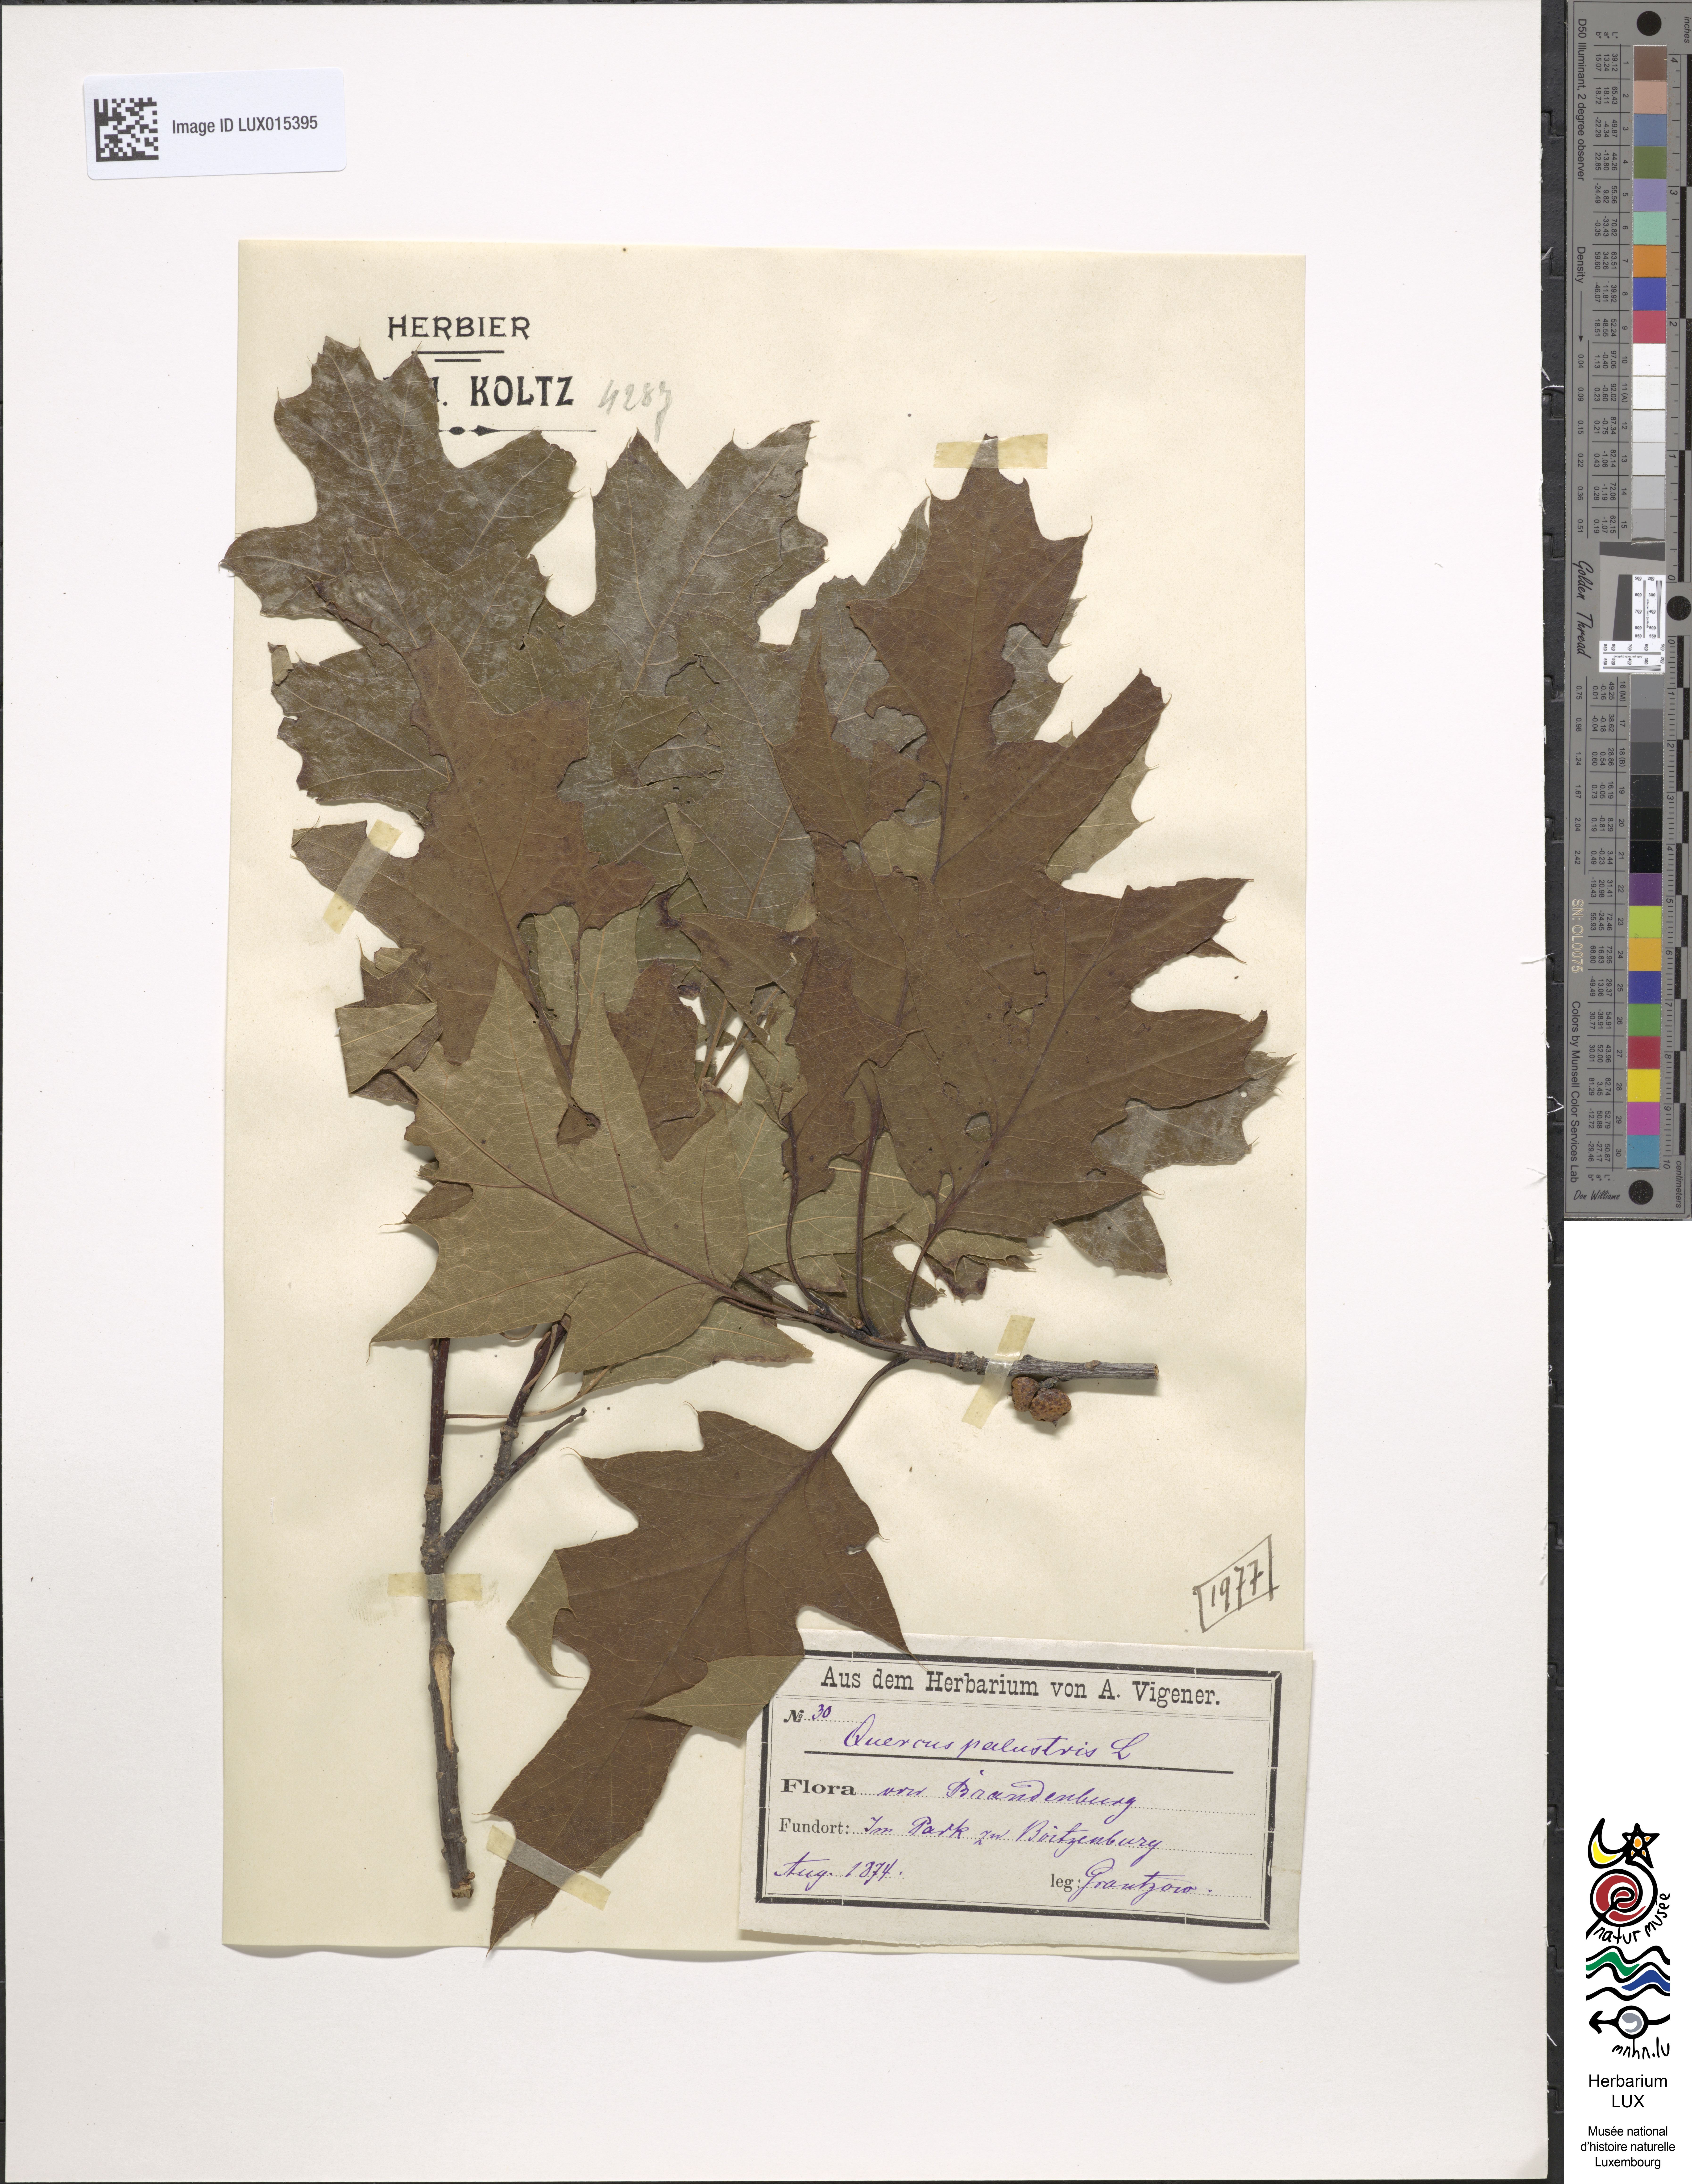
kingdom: Plantae
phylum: Tracheophyta
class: Magnoliopsida
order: Fagales
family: Fagaceae
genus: Quercus
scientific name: Quercus palustris
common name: Pin oak
